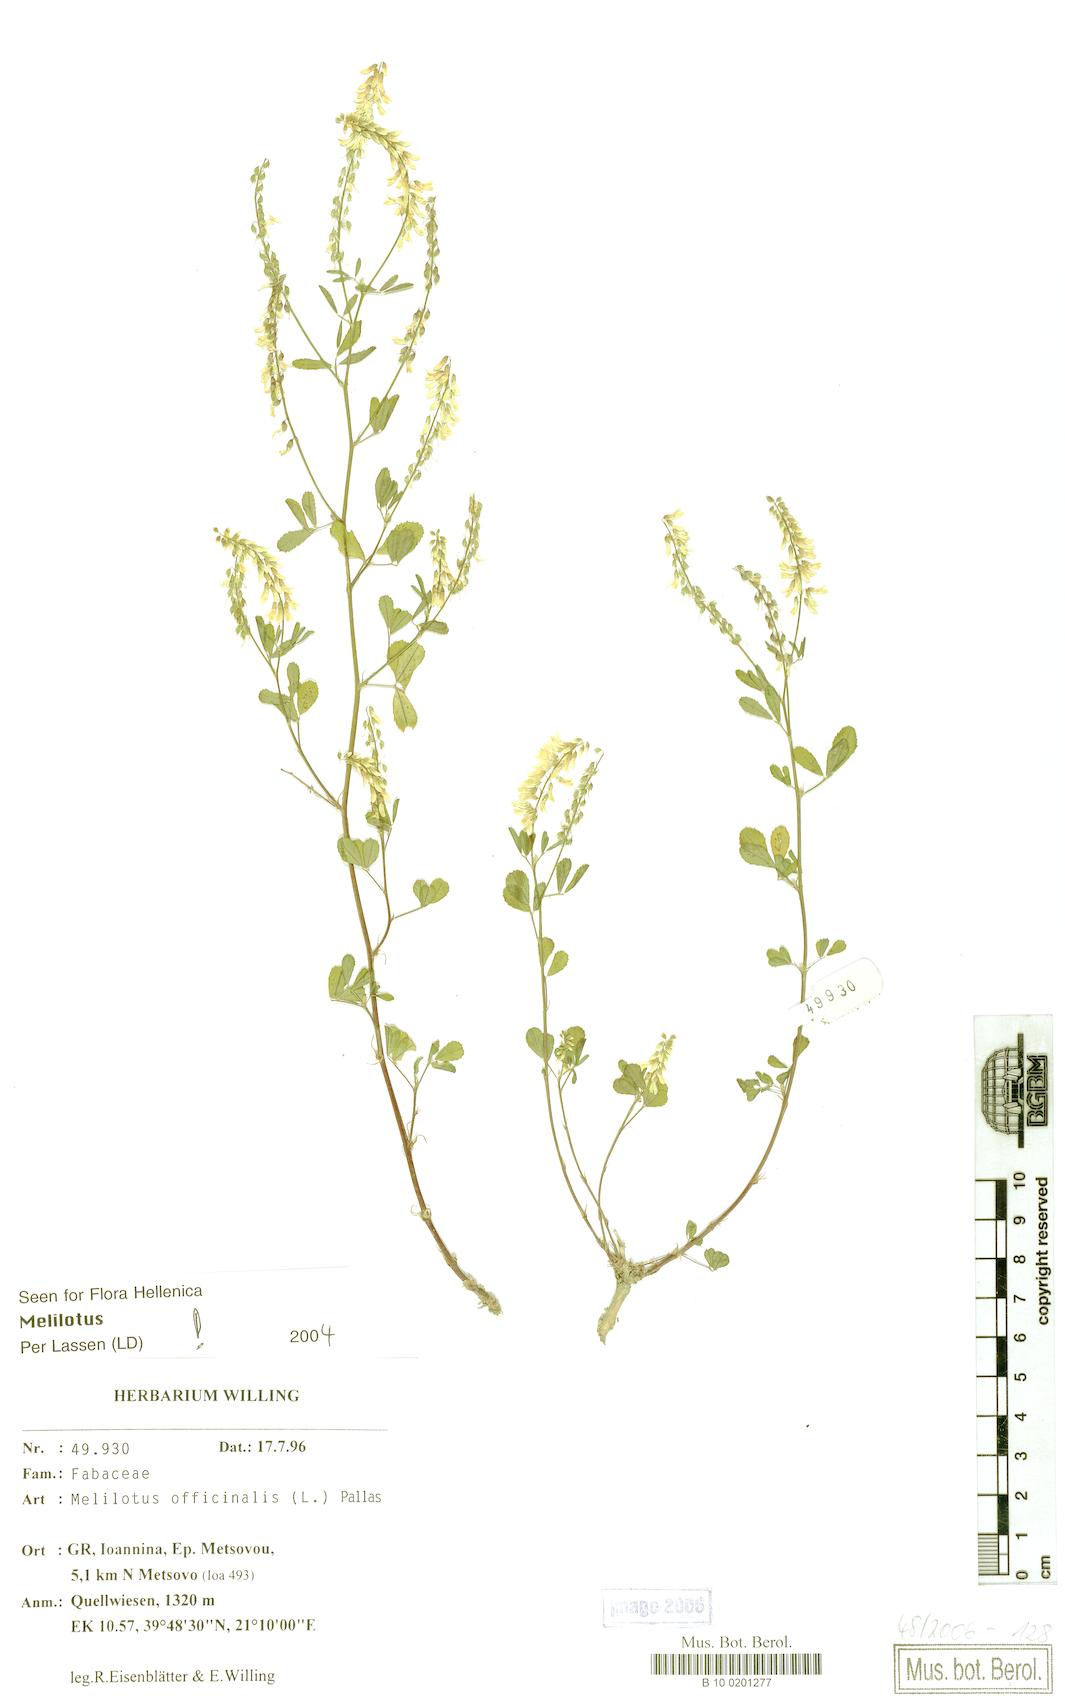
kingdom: Plantae
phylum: Tracheophyta
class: Magnoliopsida
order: Fabales
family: Fabaceae
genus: Melilotus
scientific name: Melilotus officinalis
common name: Sweetclover
